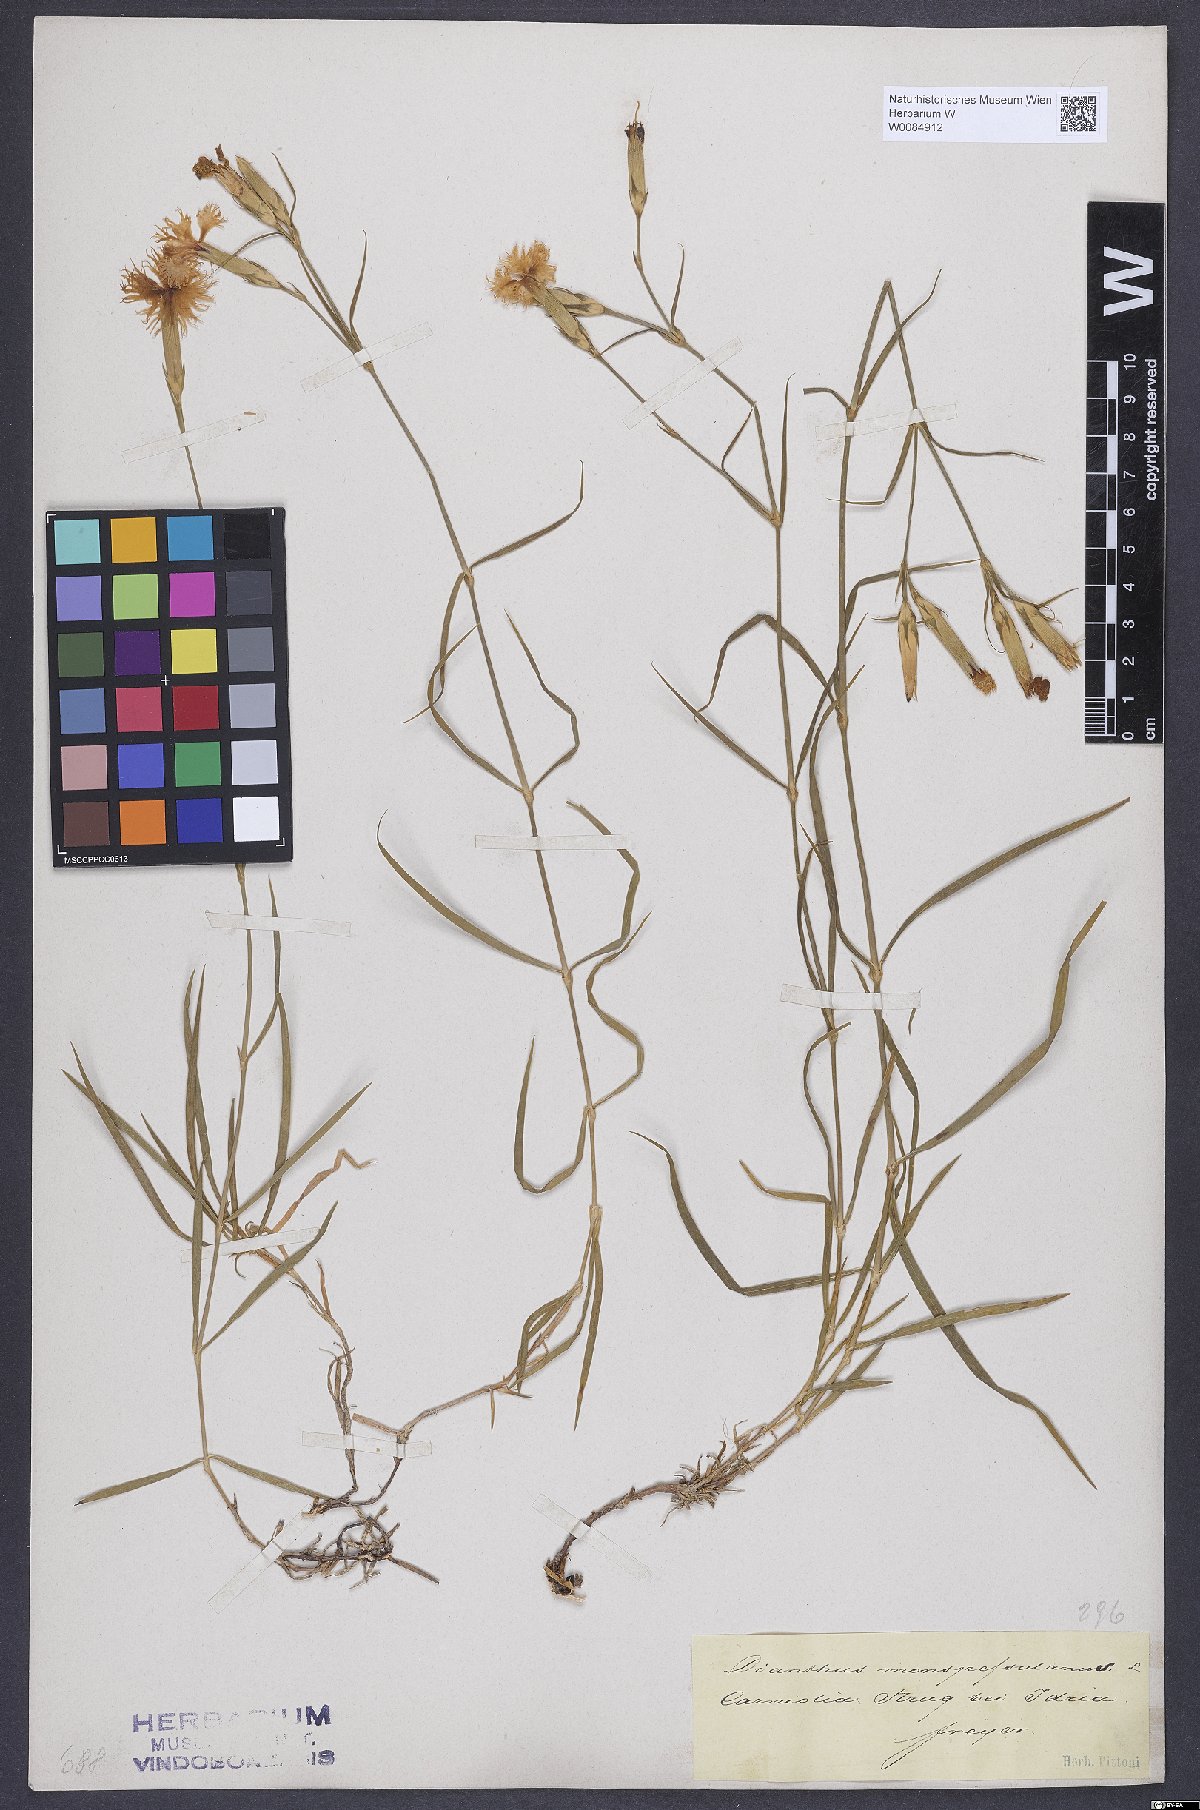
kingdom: Plantae
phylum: Tracheophyta
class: Magnoliopsida
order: Caryophyllales
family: Caryophyllaceae
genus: Dianthus
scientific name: Dianthus hyssopifolius
